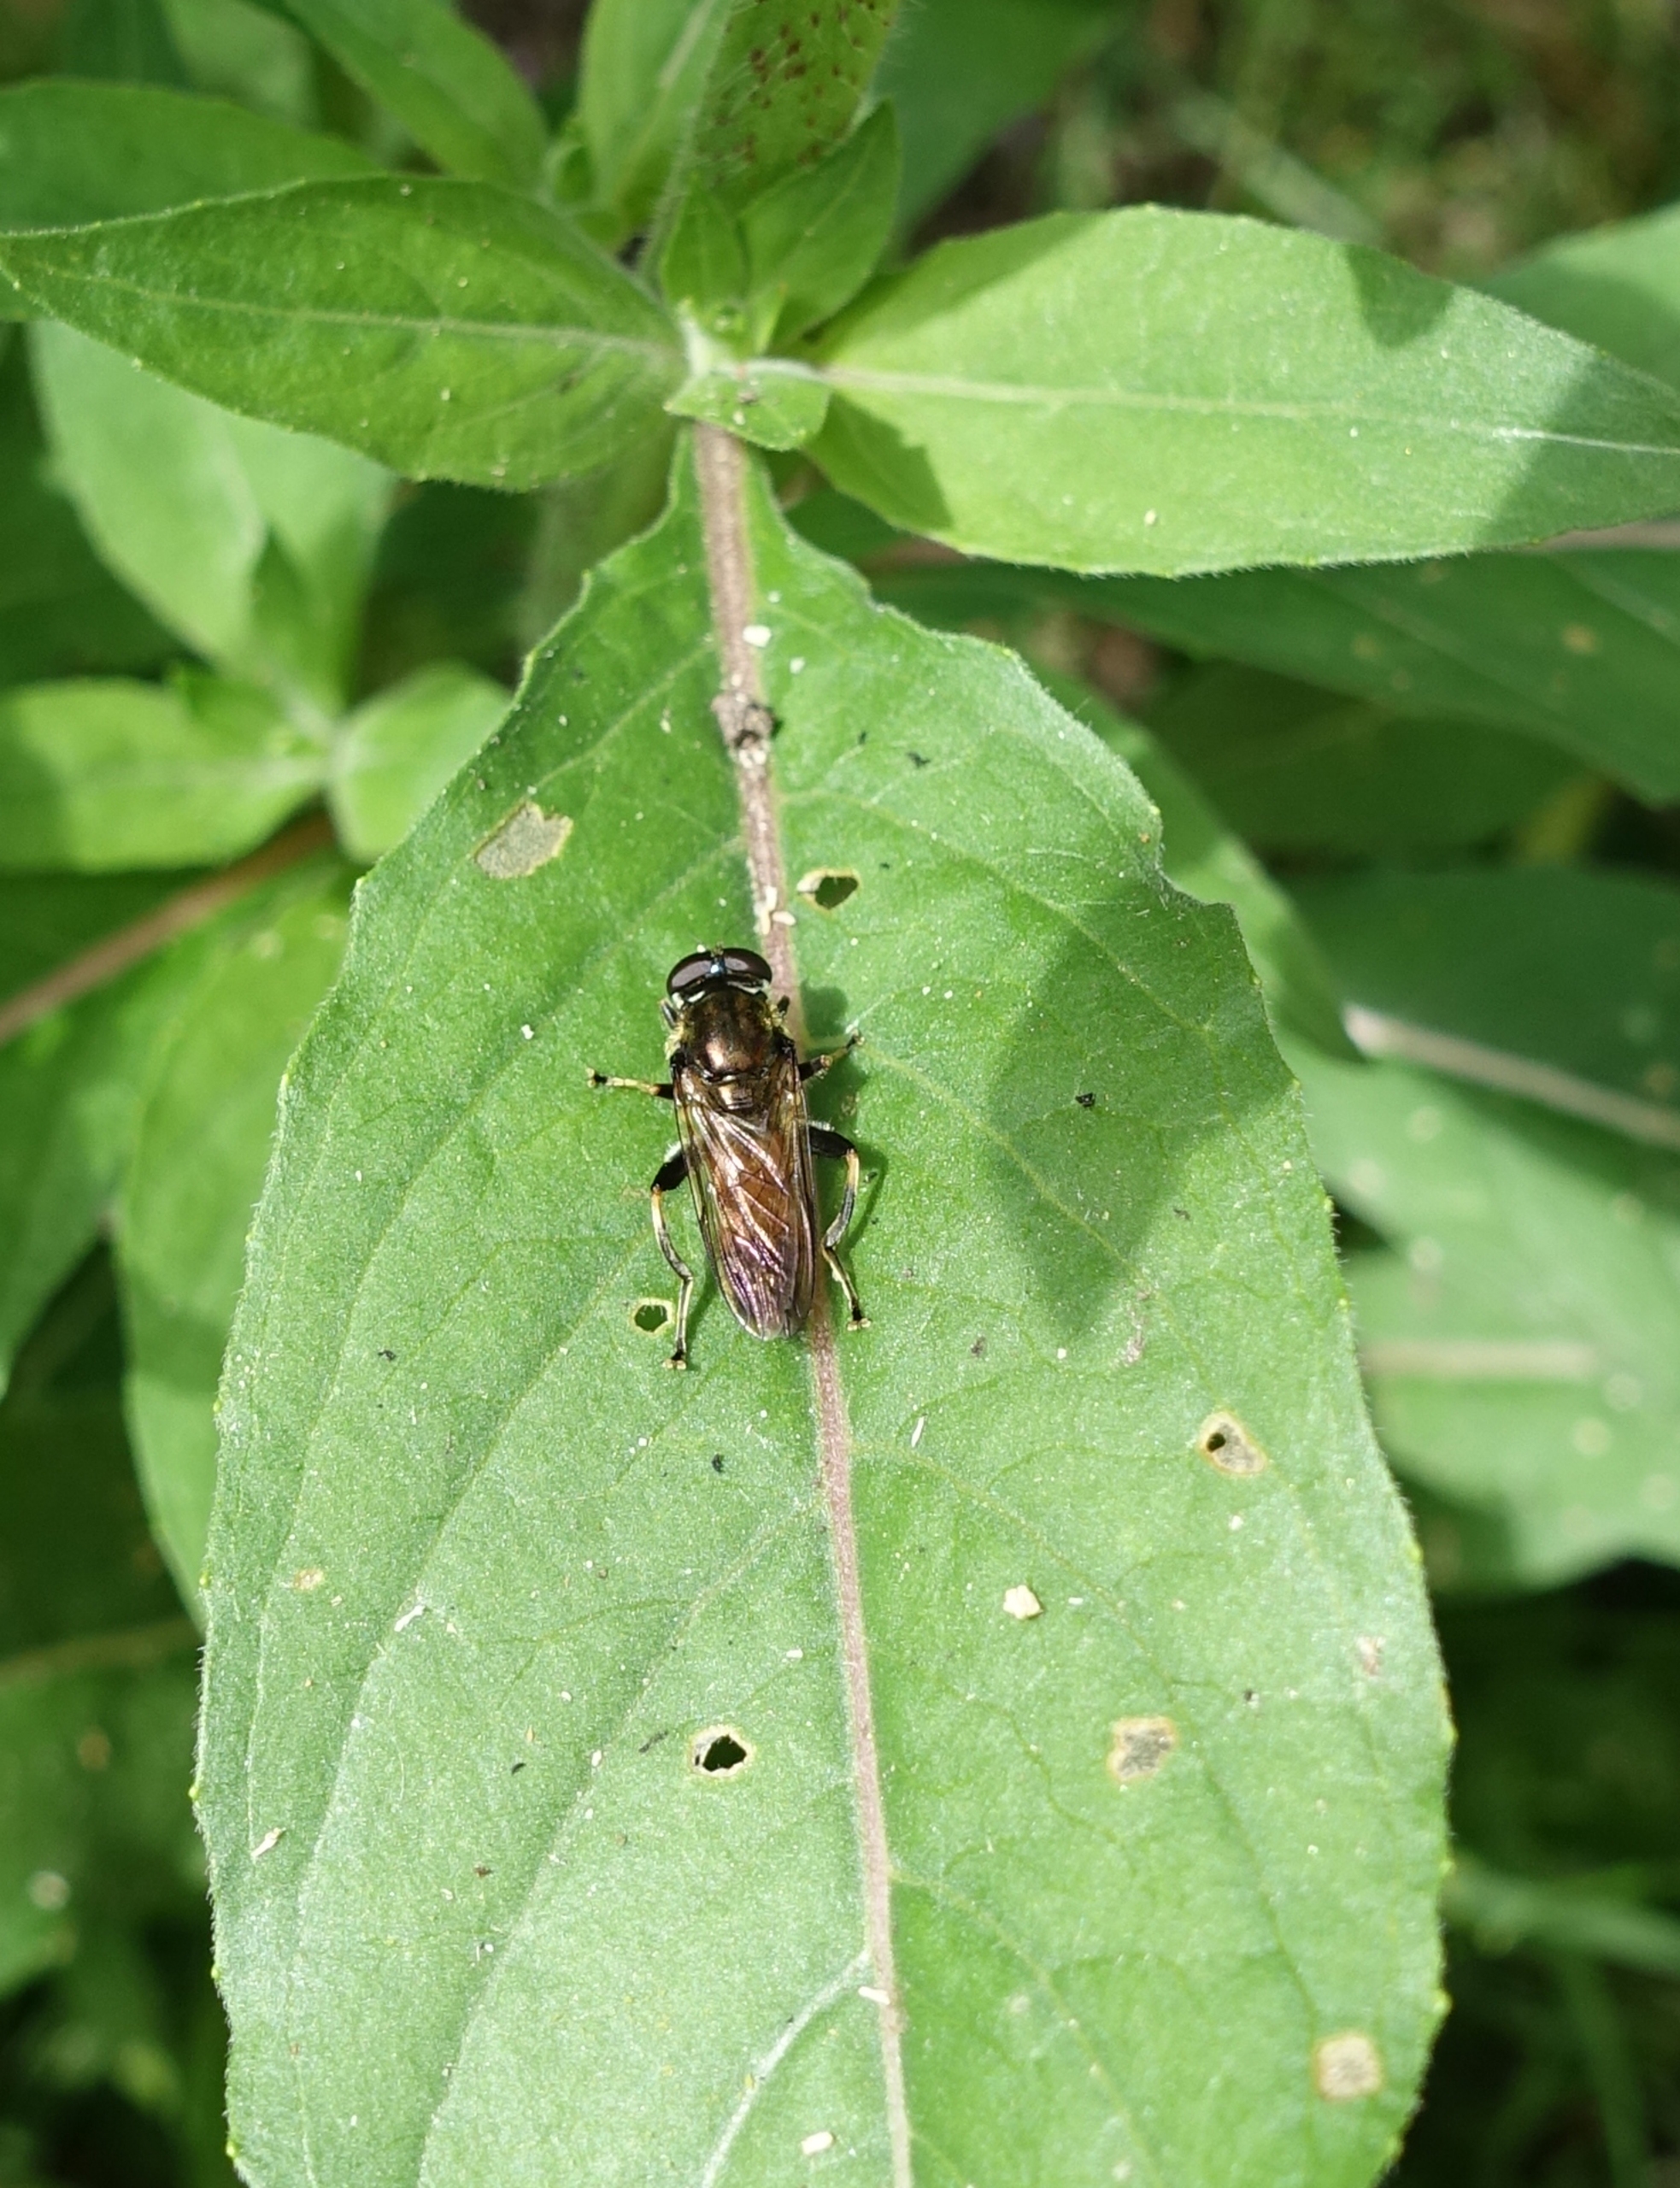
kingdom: Animalia
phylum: Arthropoda
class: Insecta
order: Diptera
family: Syrphidae
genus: Xylota
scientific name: Xylota segnis
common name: Almindelig træsvirreflue
